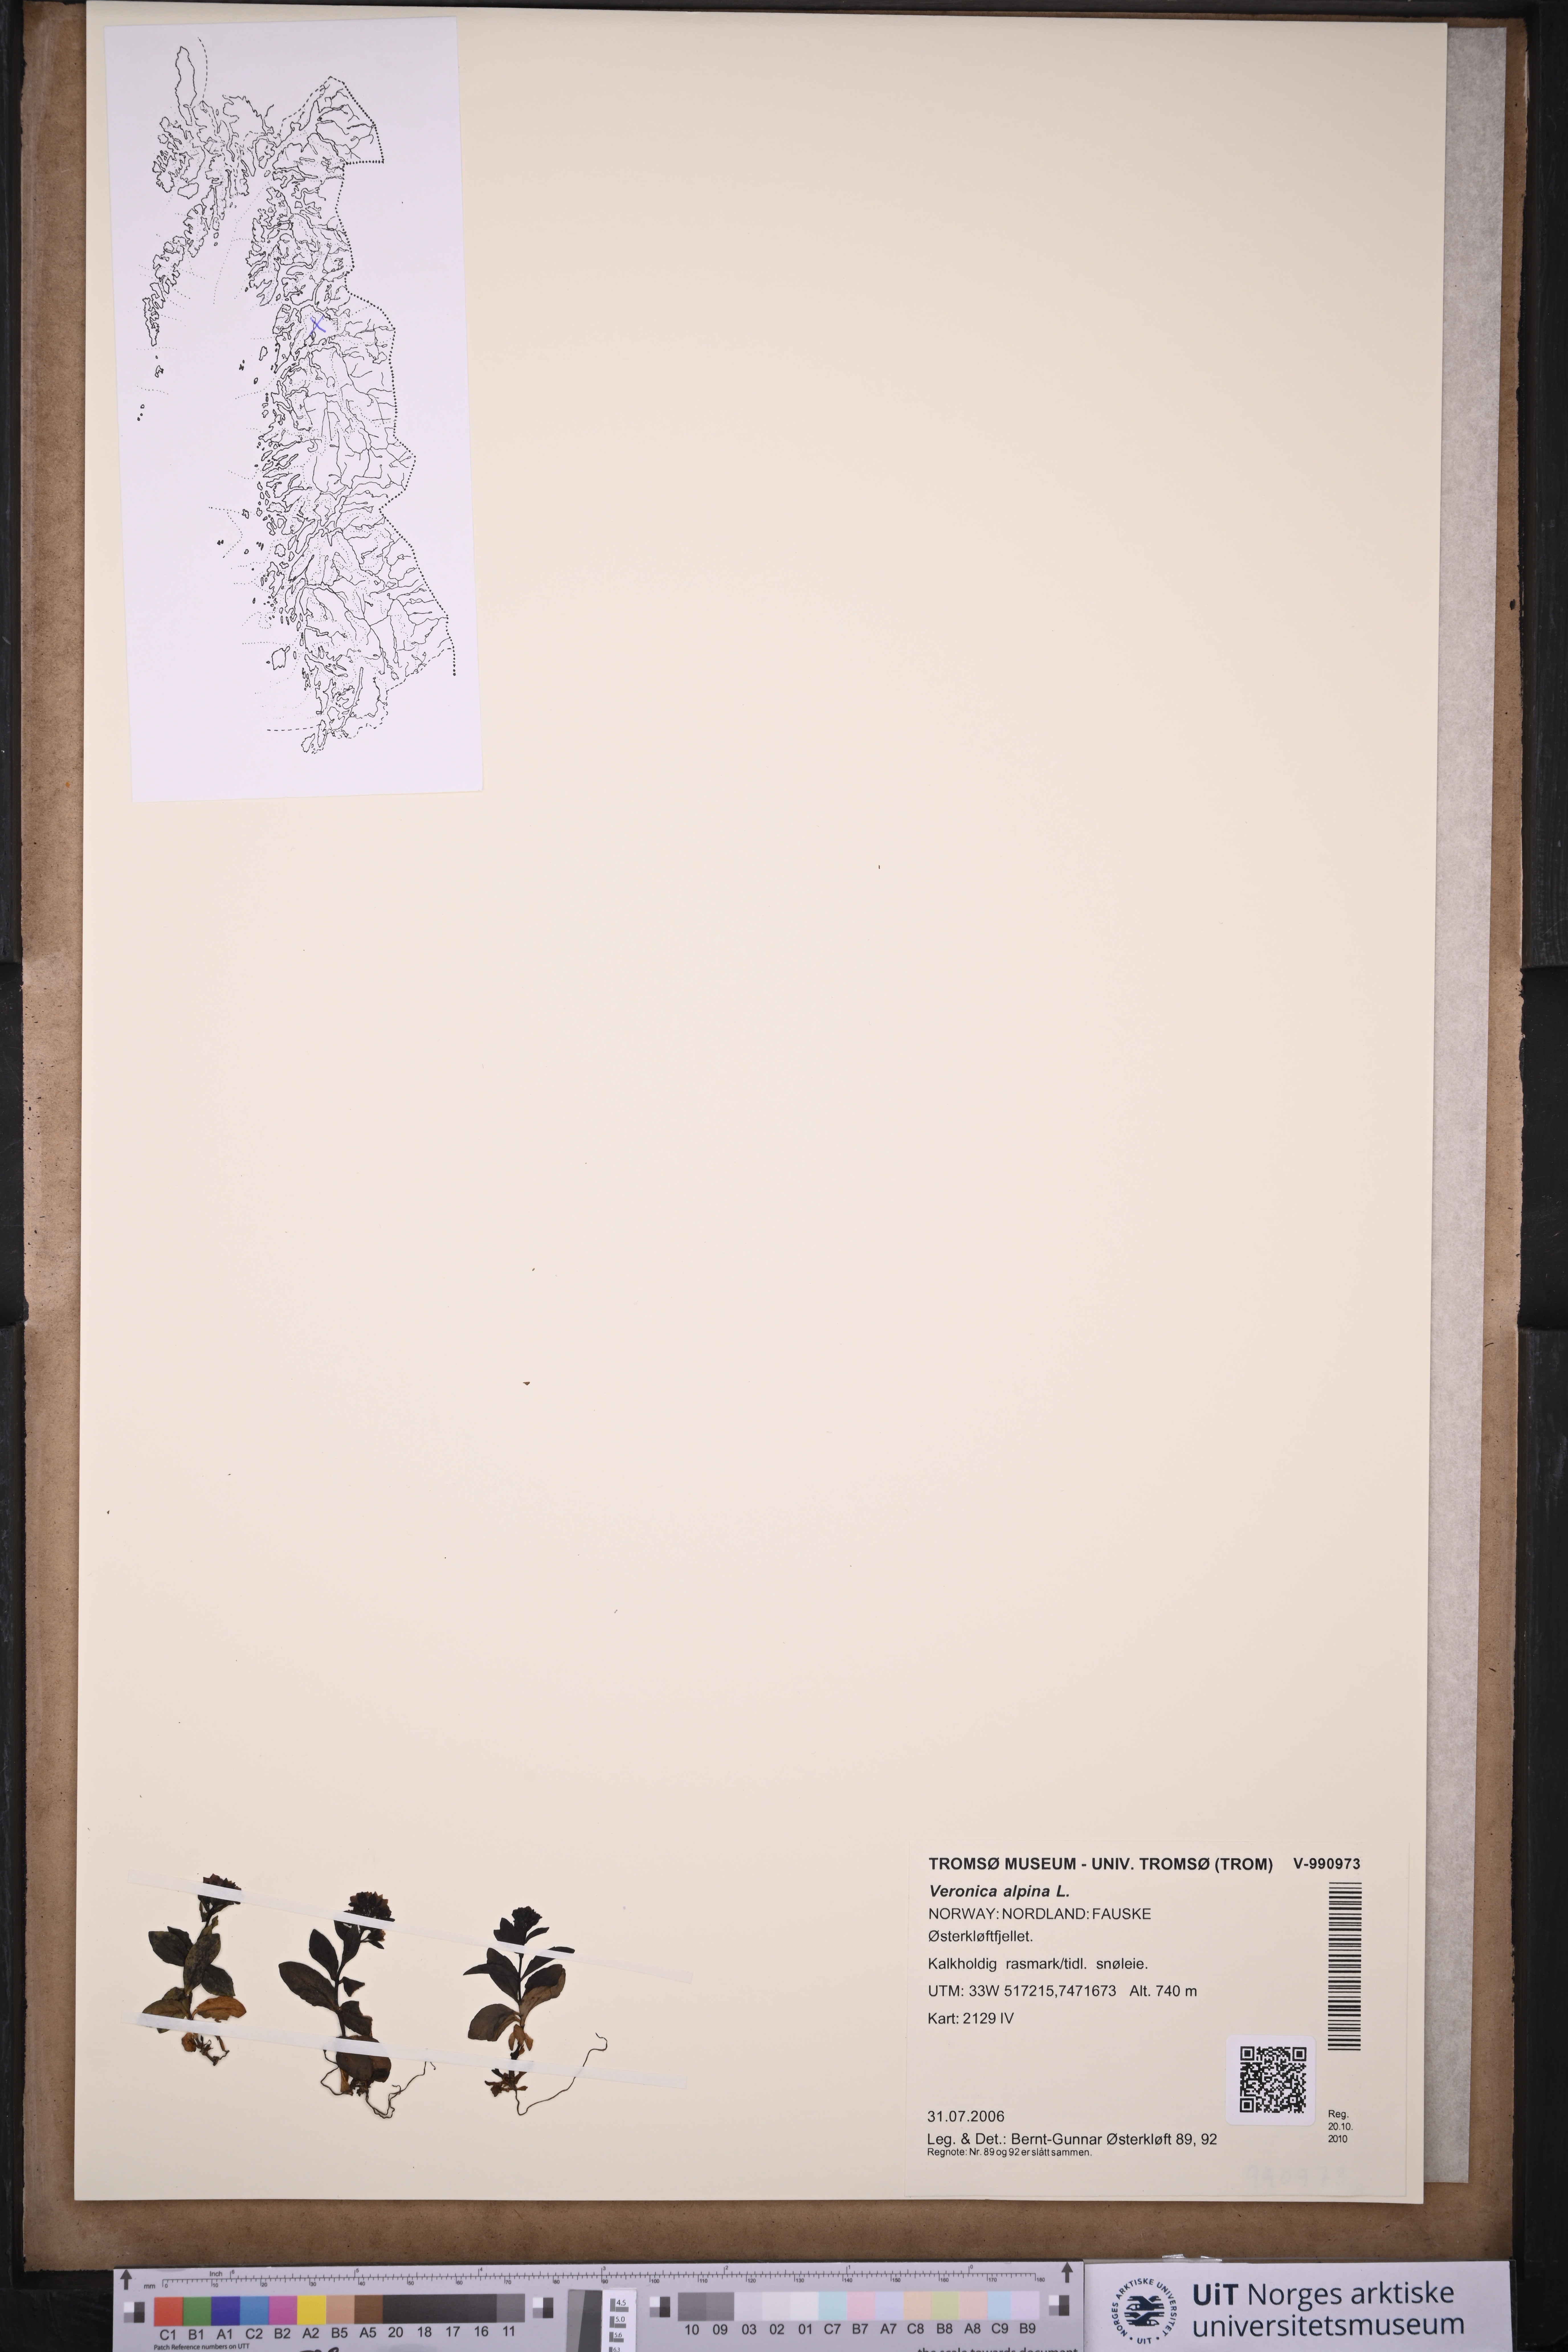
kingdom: Plantae
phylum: Tracheophyta
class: Magnoliopsida
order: Lamiales
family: Plantaginaceae
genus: Veronica
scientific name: Veronica alpina
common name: Alpine speedwell
